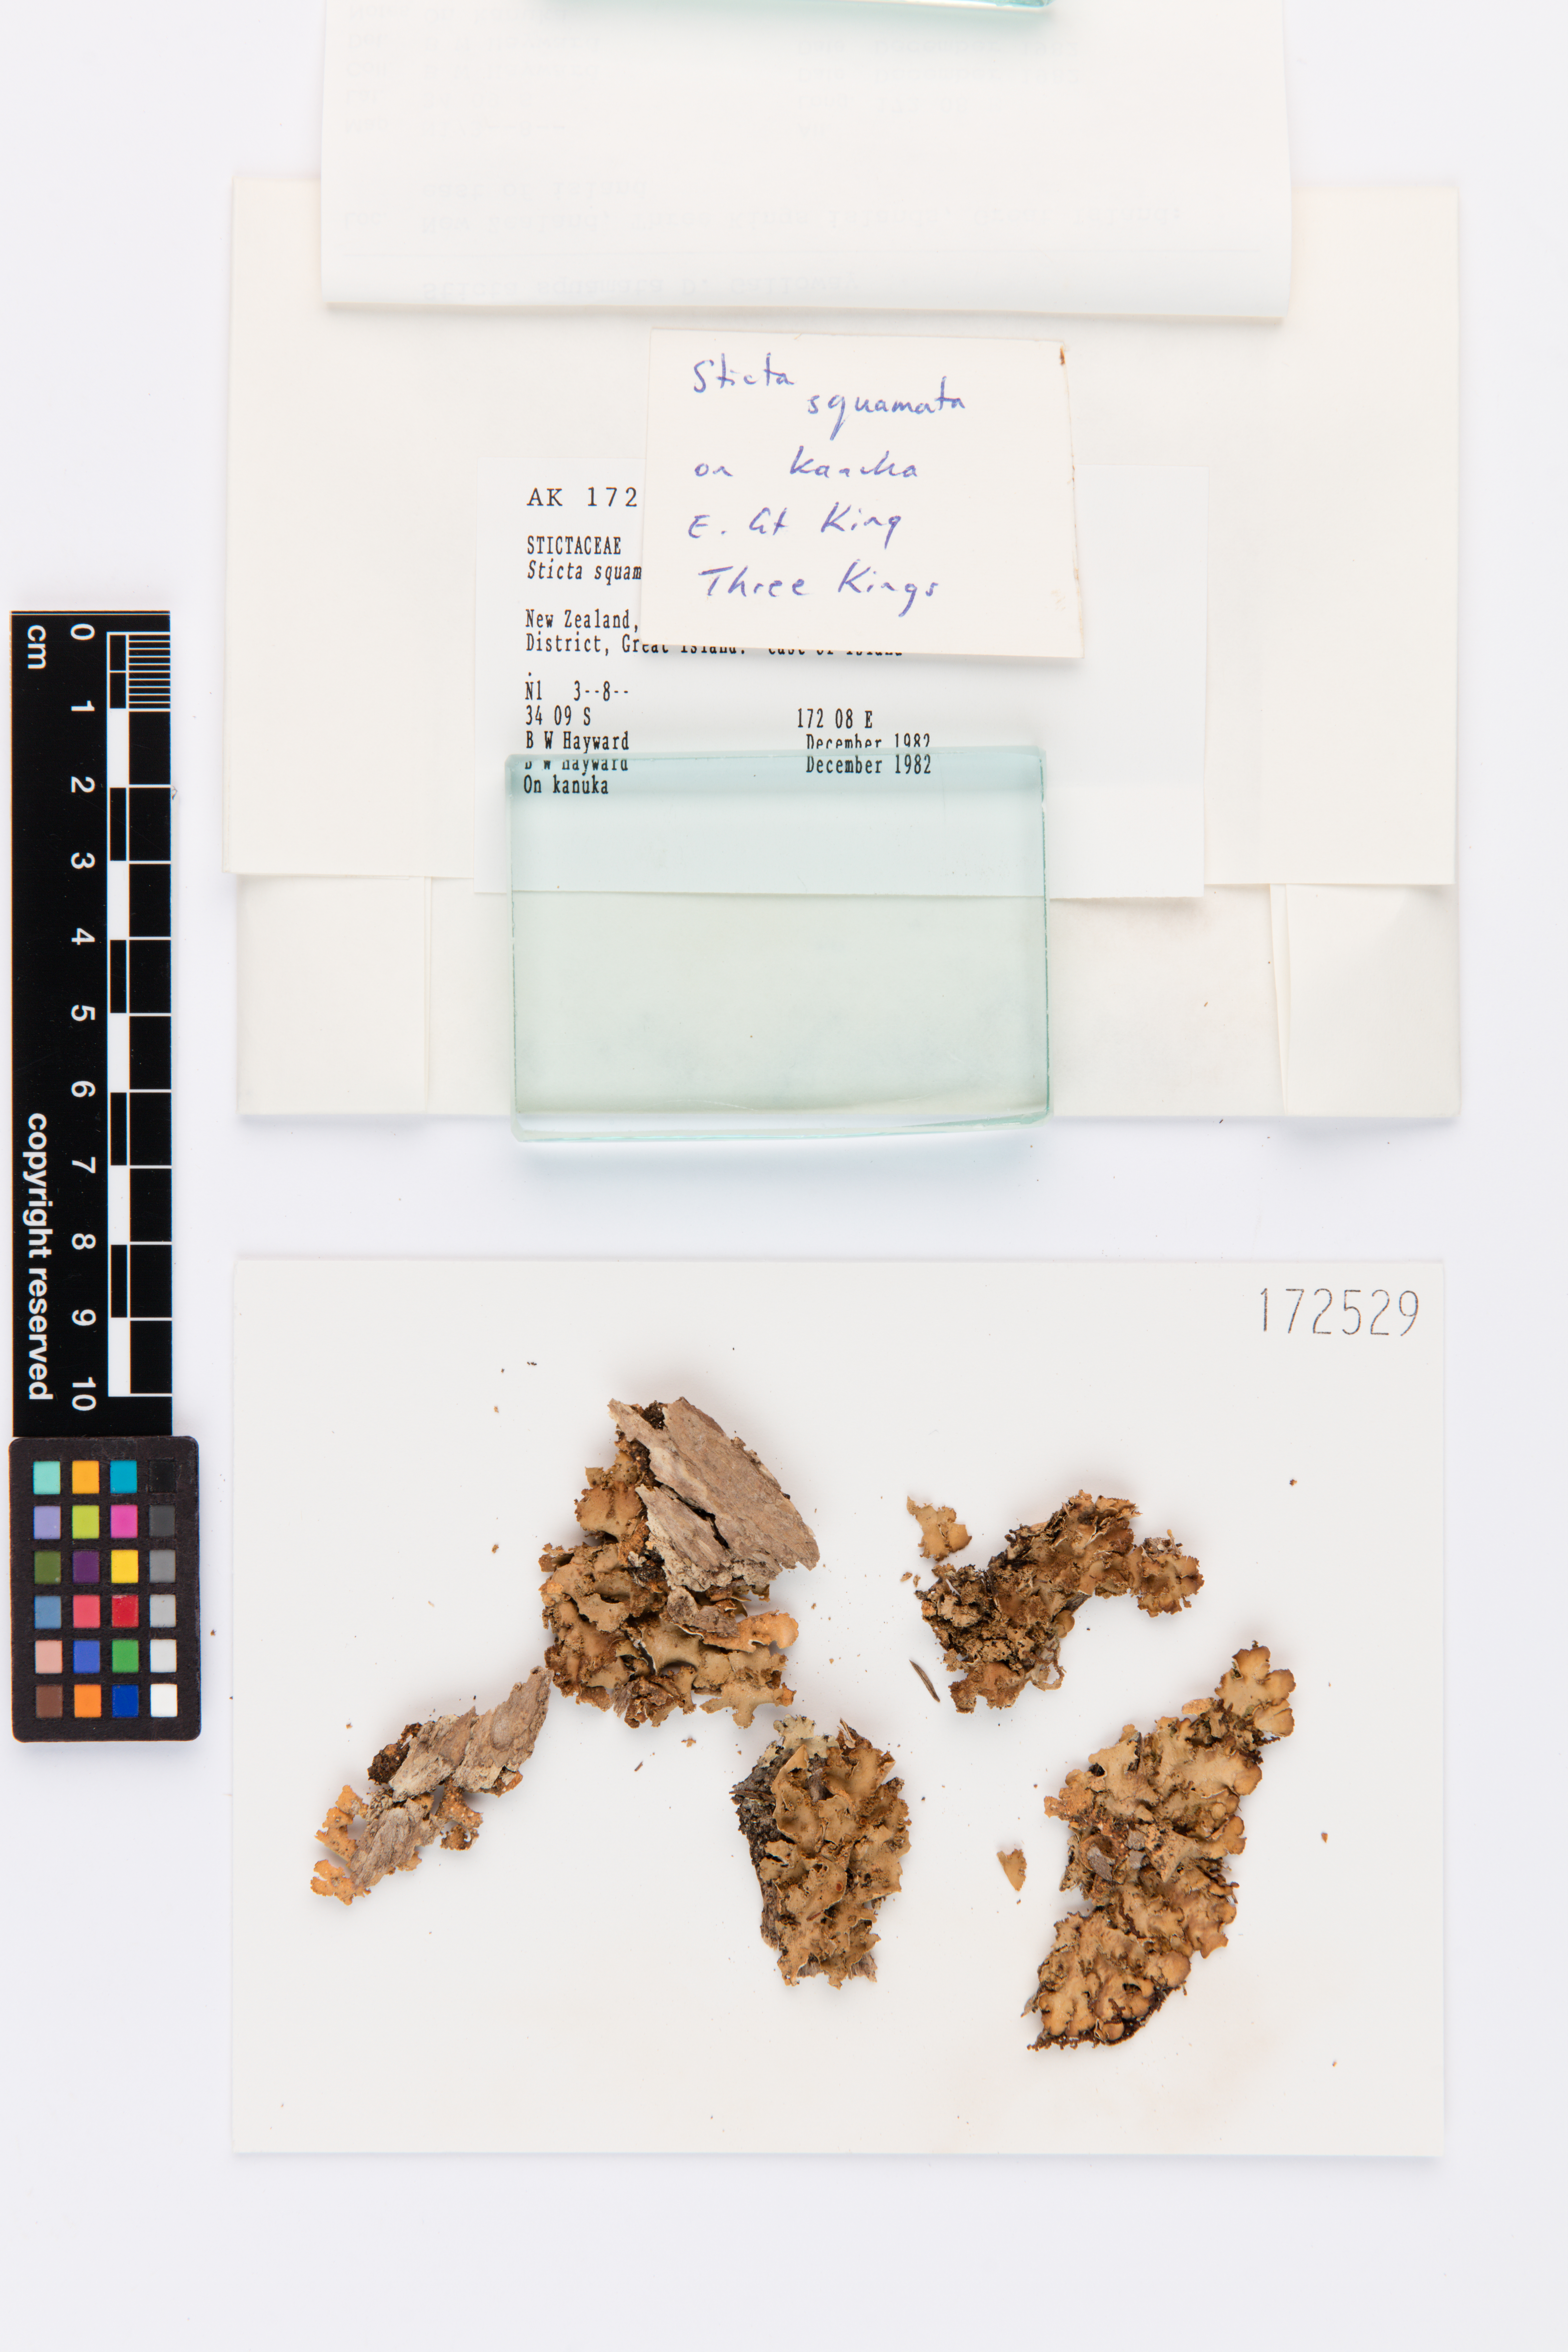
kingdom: Fungi
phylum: Ascomycota
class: Lecanoromycetes
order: Peltigerales
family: Lobariaceae
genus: Sticta
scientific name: Sticta squamata
